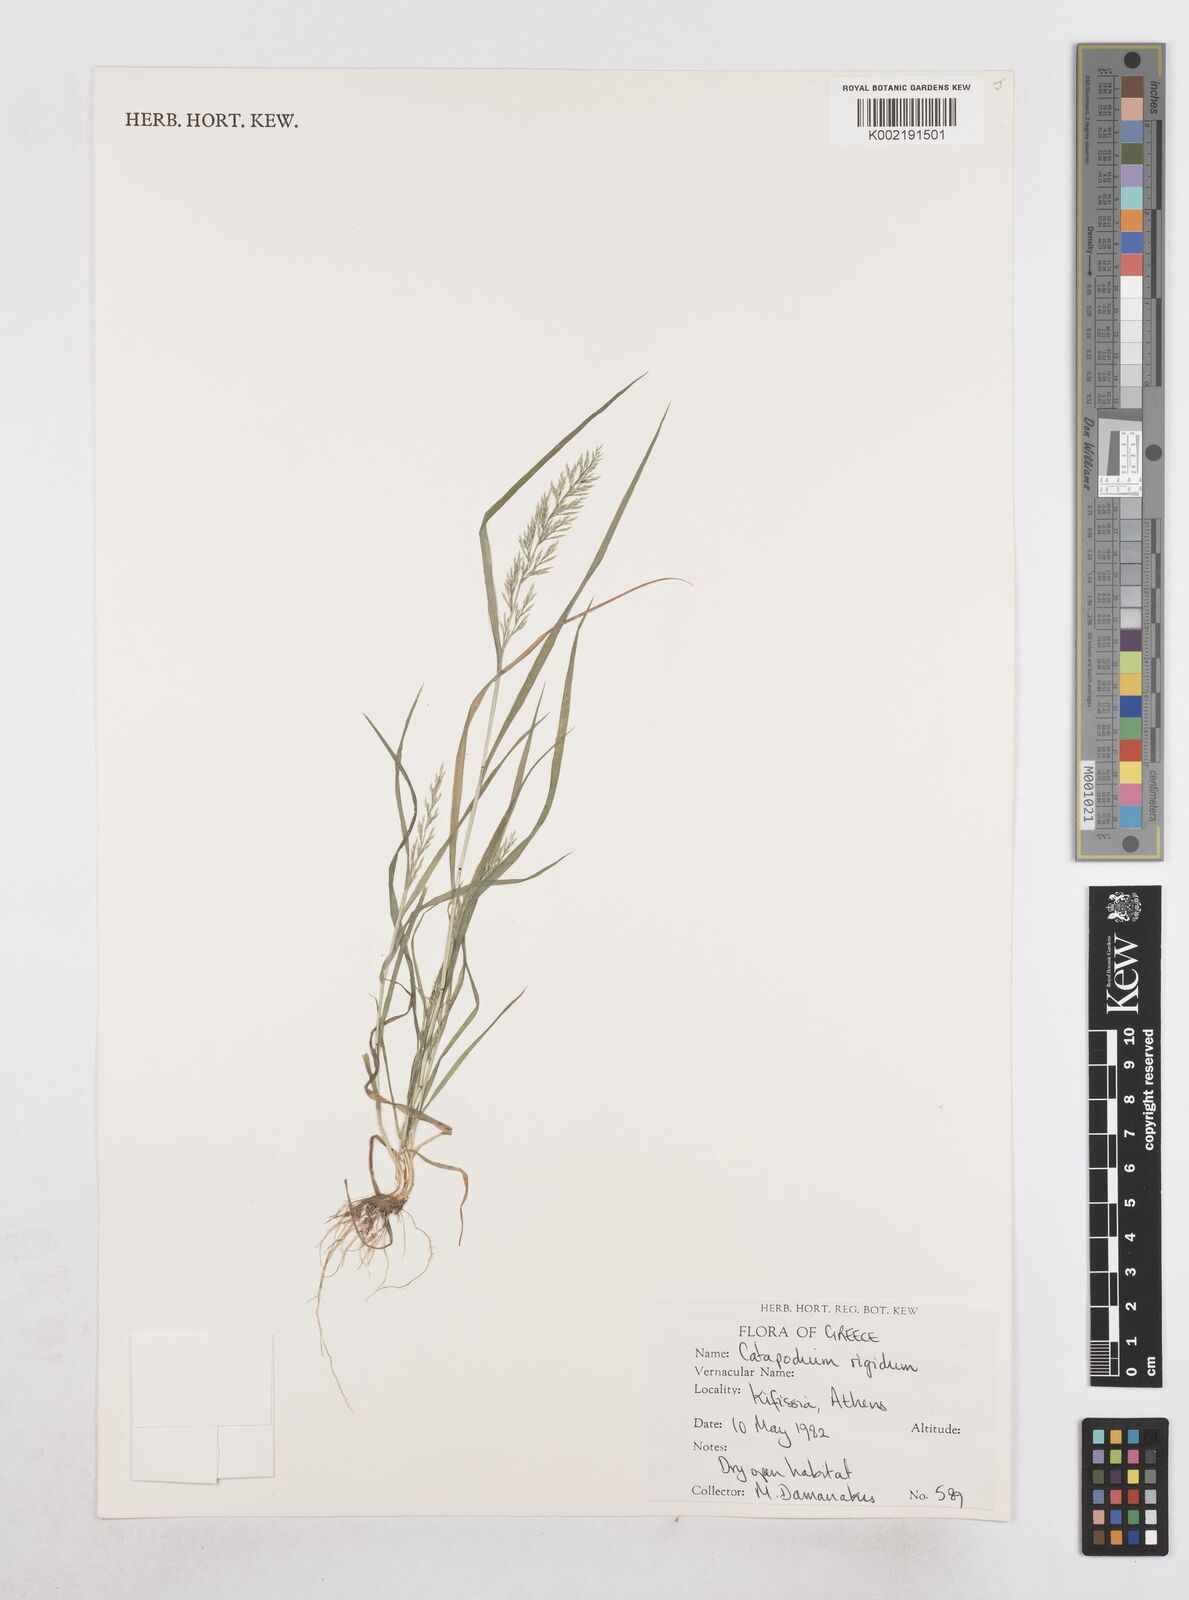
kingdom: Plantae
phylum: Tracheophyta
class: Liliopsida
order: Poales
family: Poaceae
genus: Catapodium
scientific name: Catapodium rigidum
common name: Fern-grass
